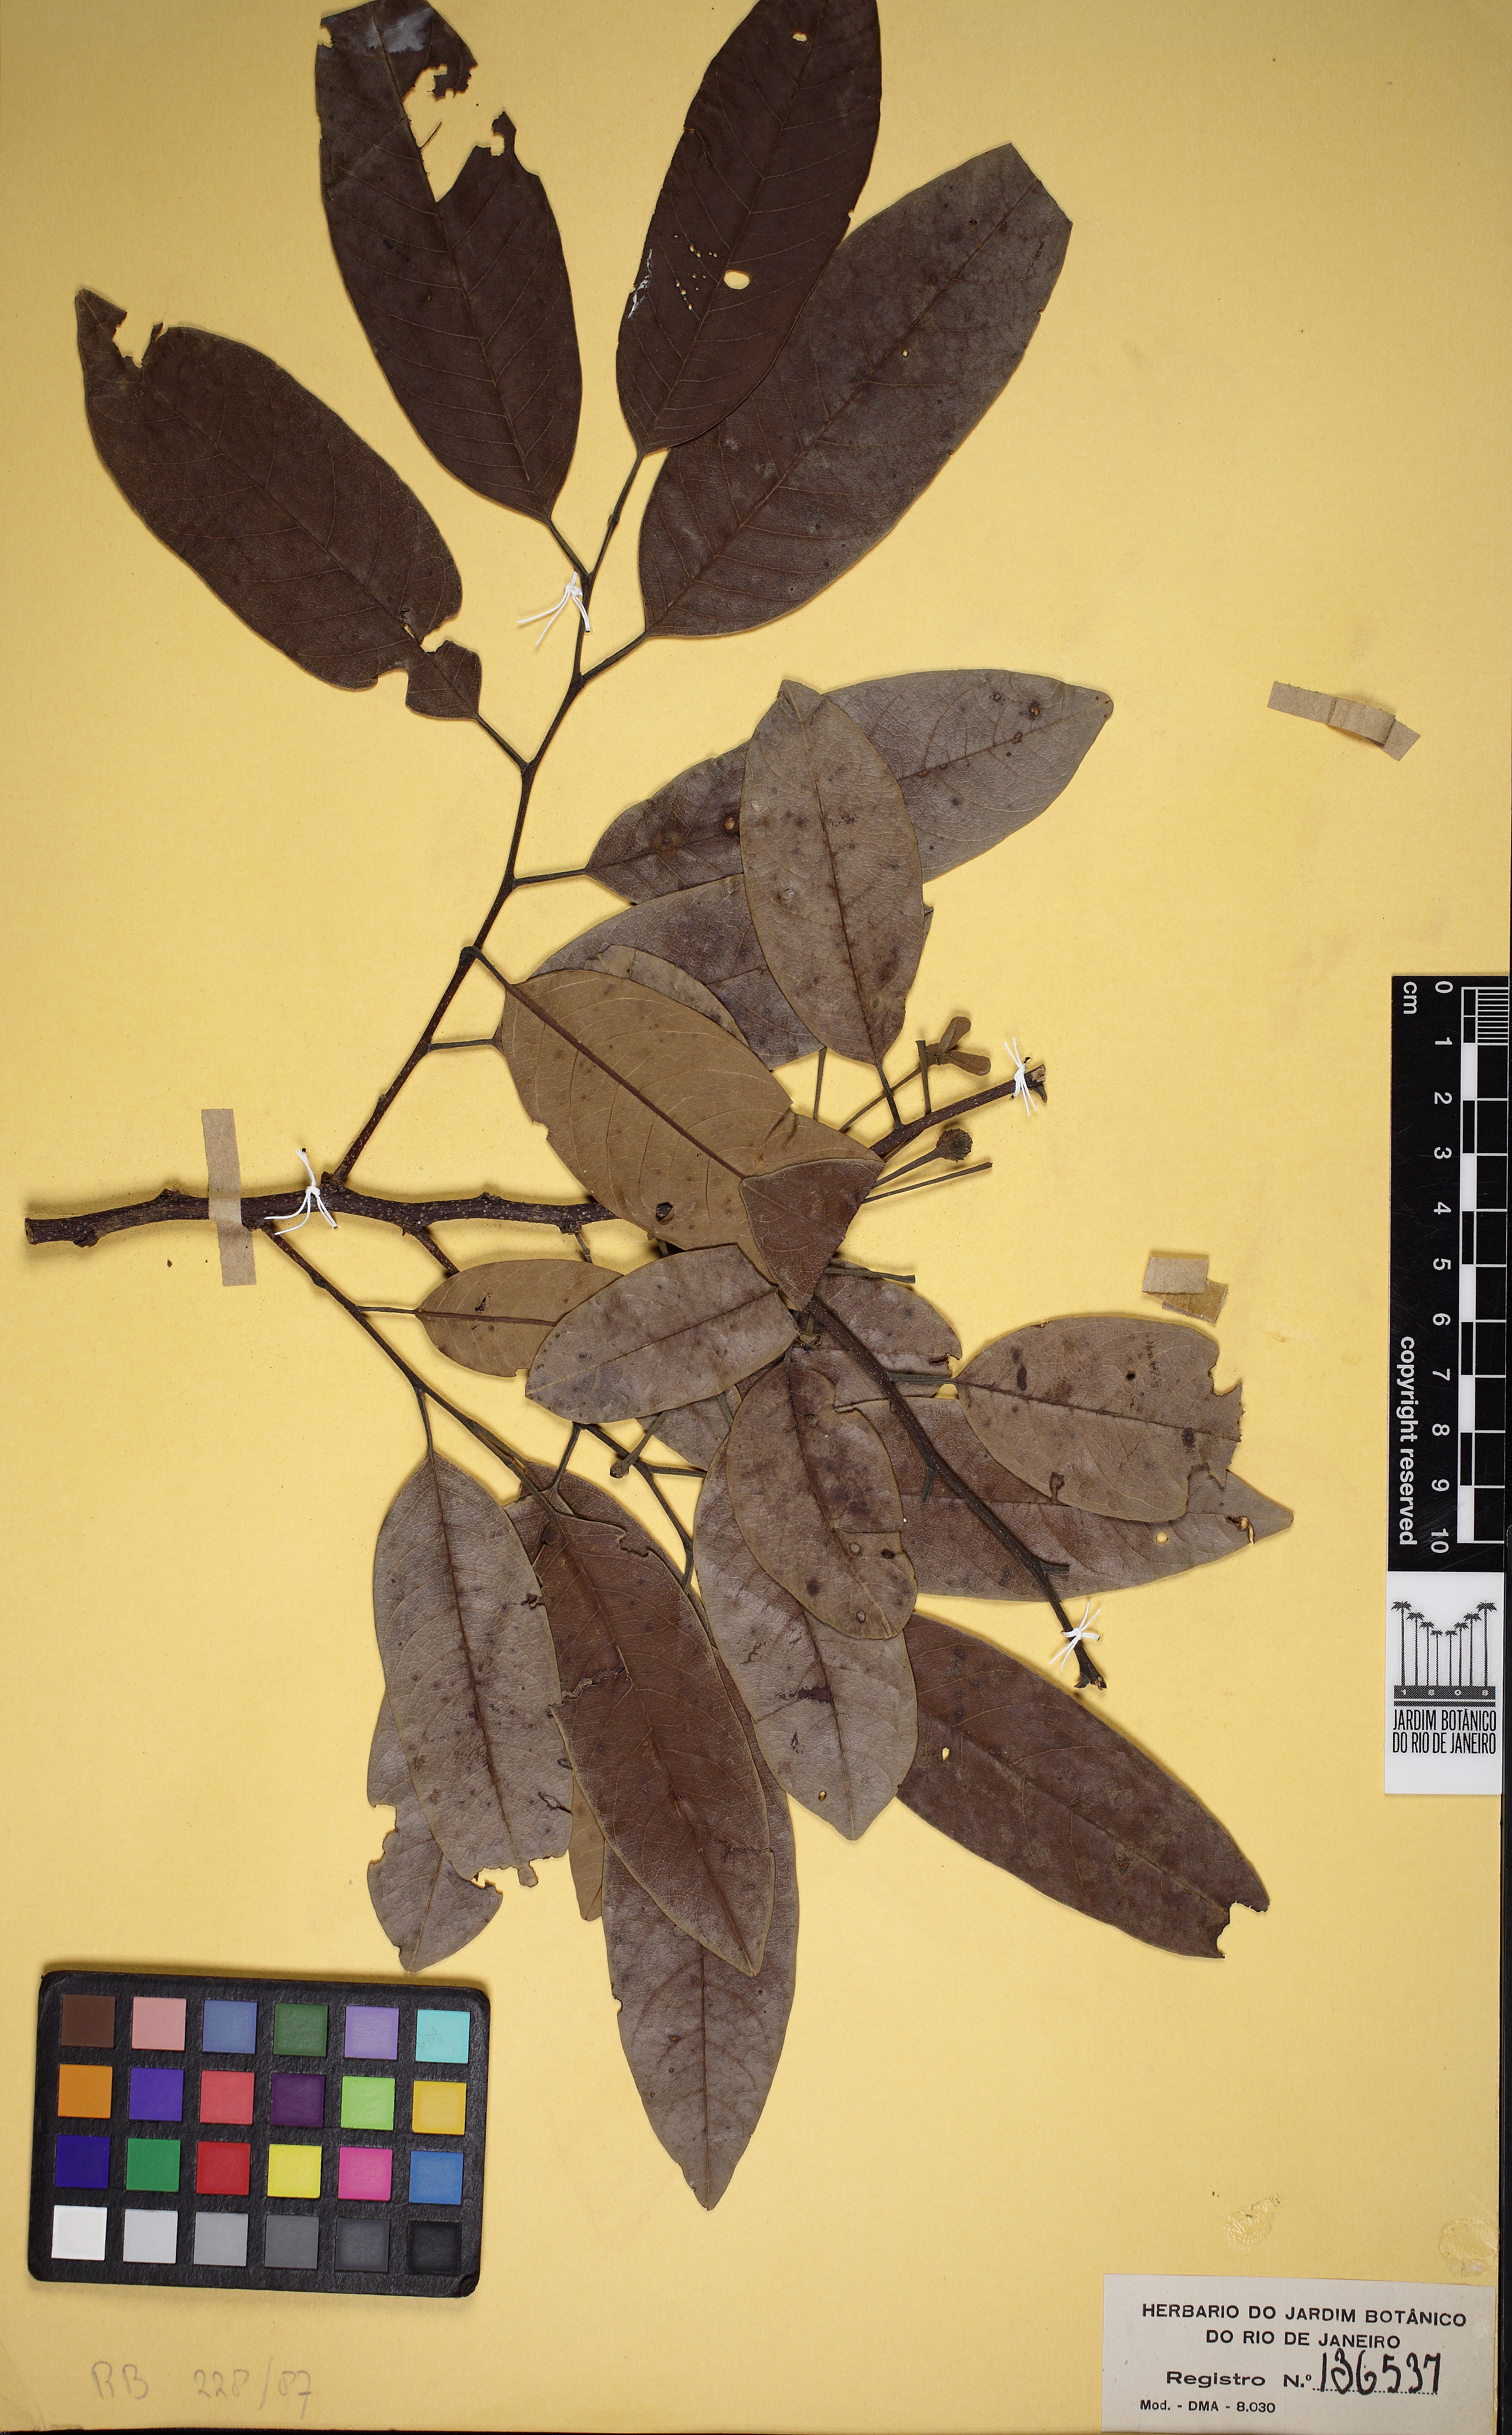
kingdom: Plantae
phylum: Tracheophyta
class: Magnoliopsida
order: Magnoliales
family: Annonaceae
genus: Annona
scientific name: Annona dolabripetala
